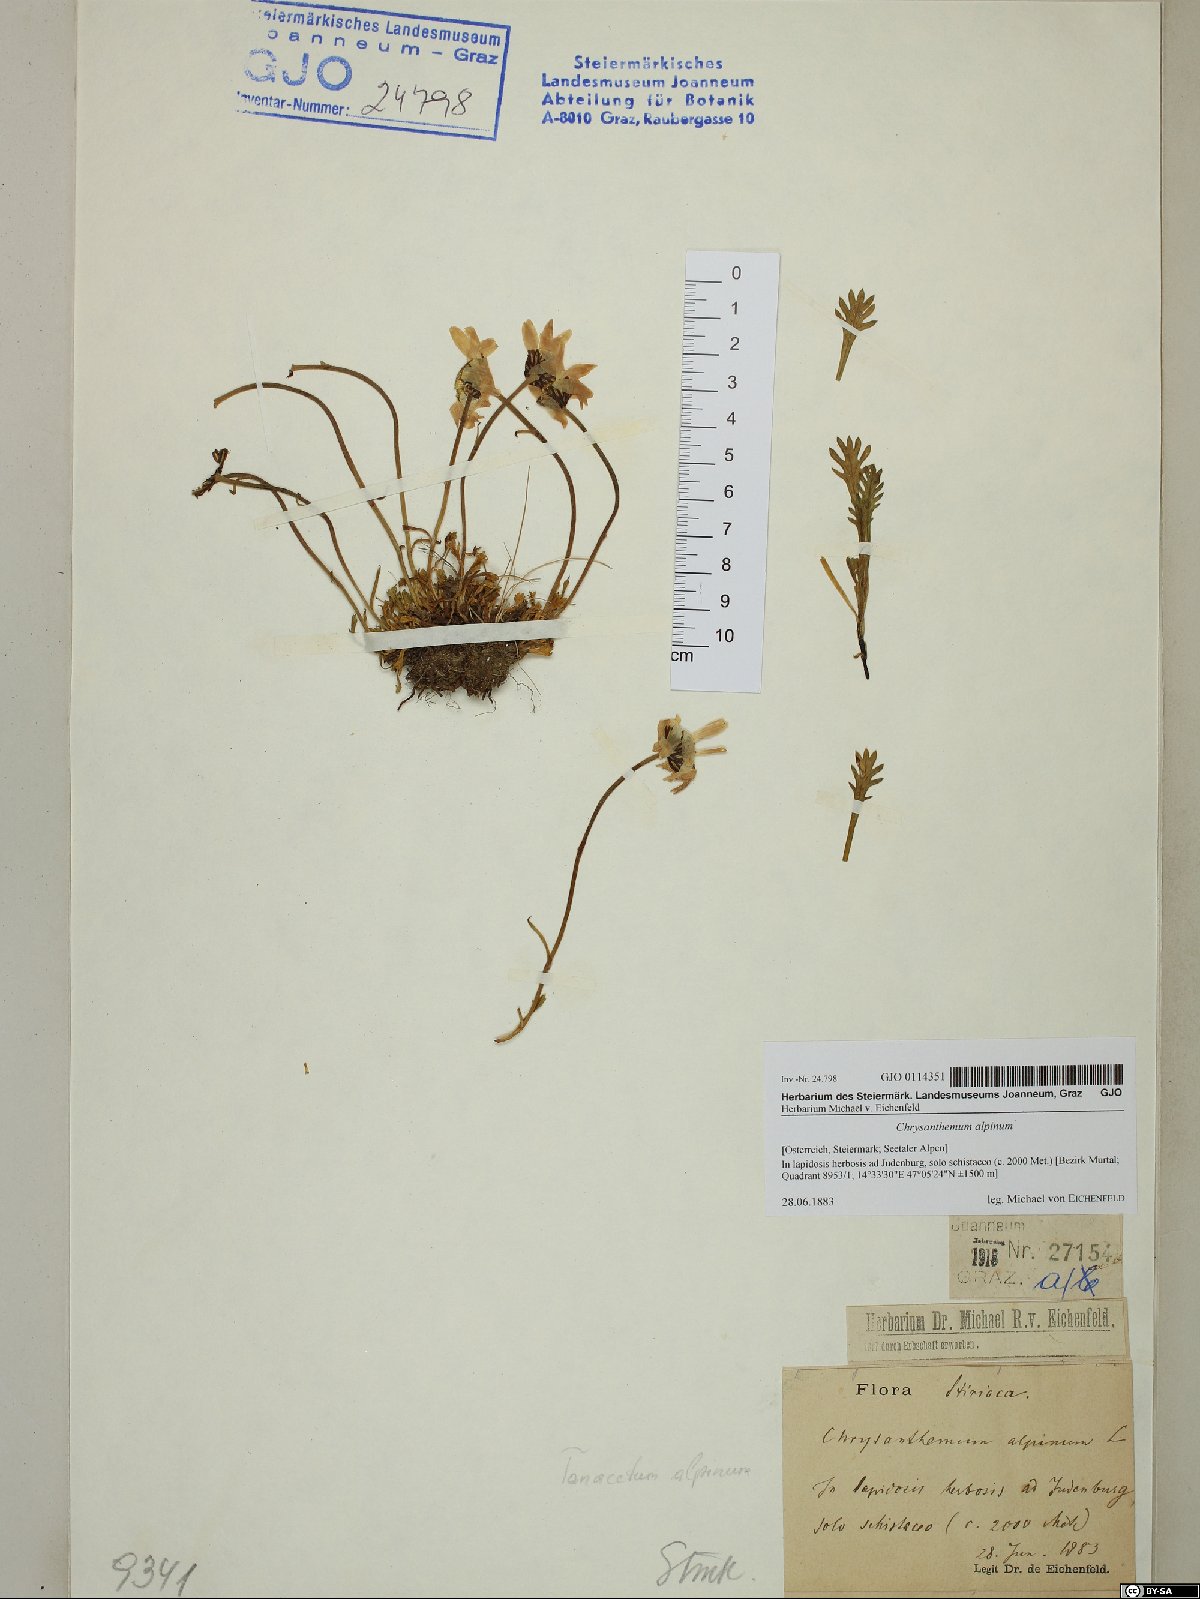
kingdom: Plantae
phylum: Tracheophyta
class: Magnoliopsida
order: Asterales
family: Asteraceae
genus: Leucanthemopsis
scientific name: Leucanthemopsis alpina
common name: Alpine moon daisy
